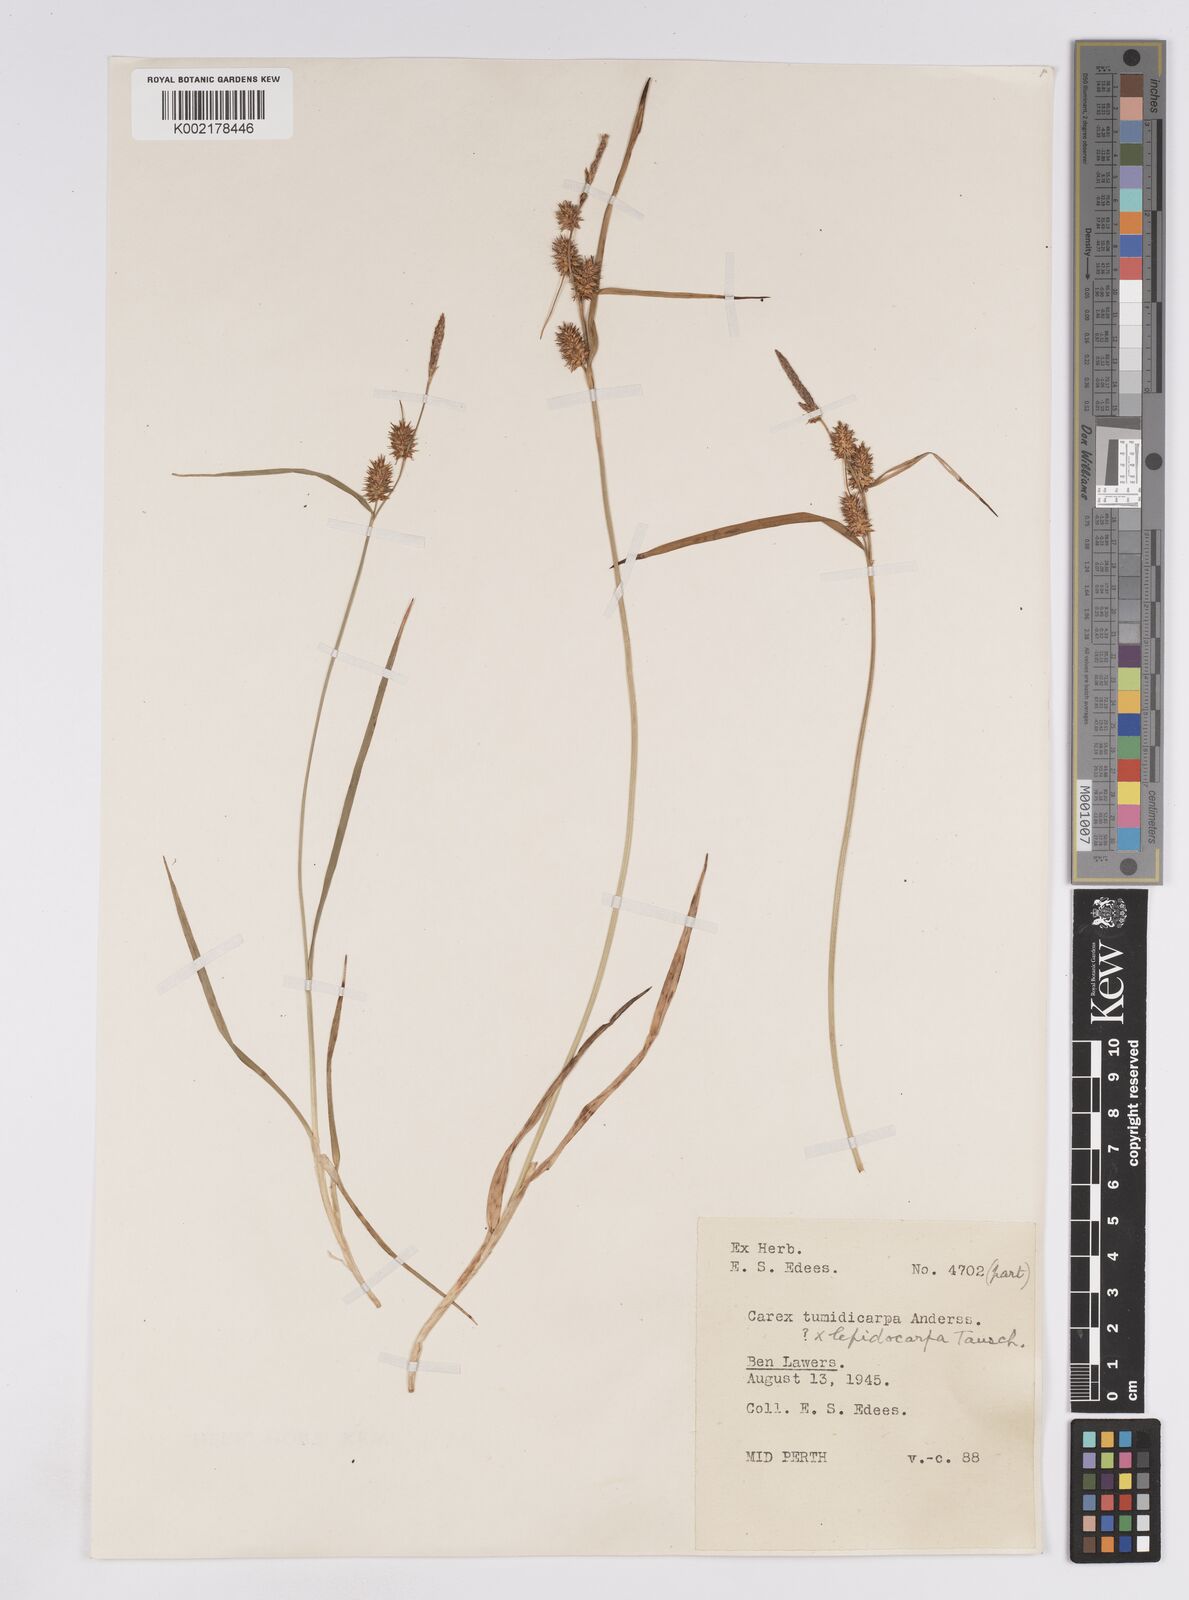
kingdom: Plantae
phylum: Tracheophyta
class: Liliopsida
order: Poales
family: Cyperaceae
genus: Carex
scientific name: Carex lepidocarpa
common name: Long-stalked yellow-sedge
